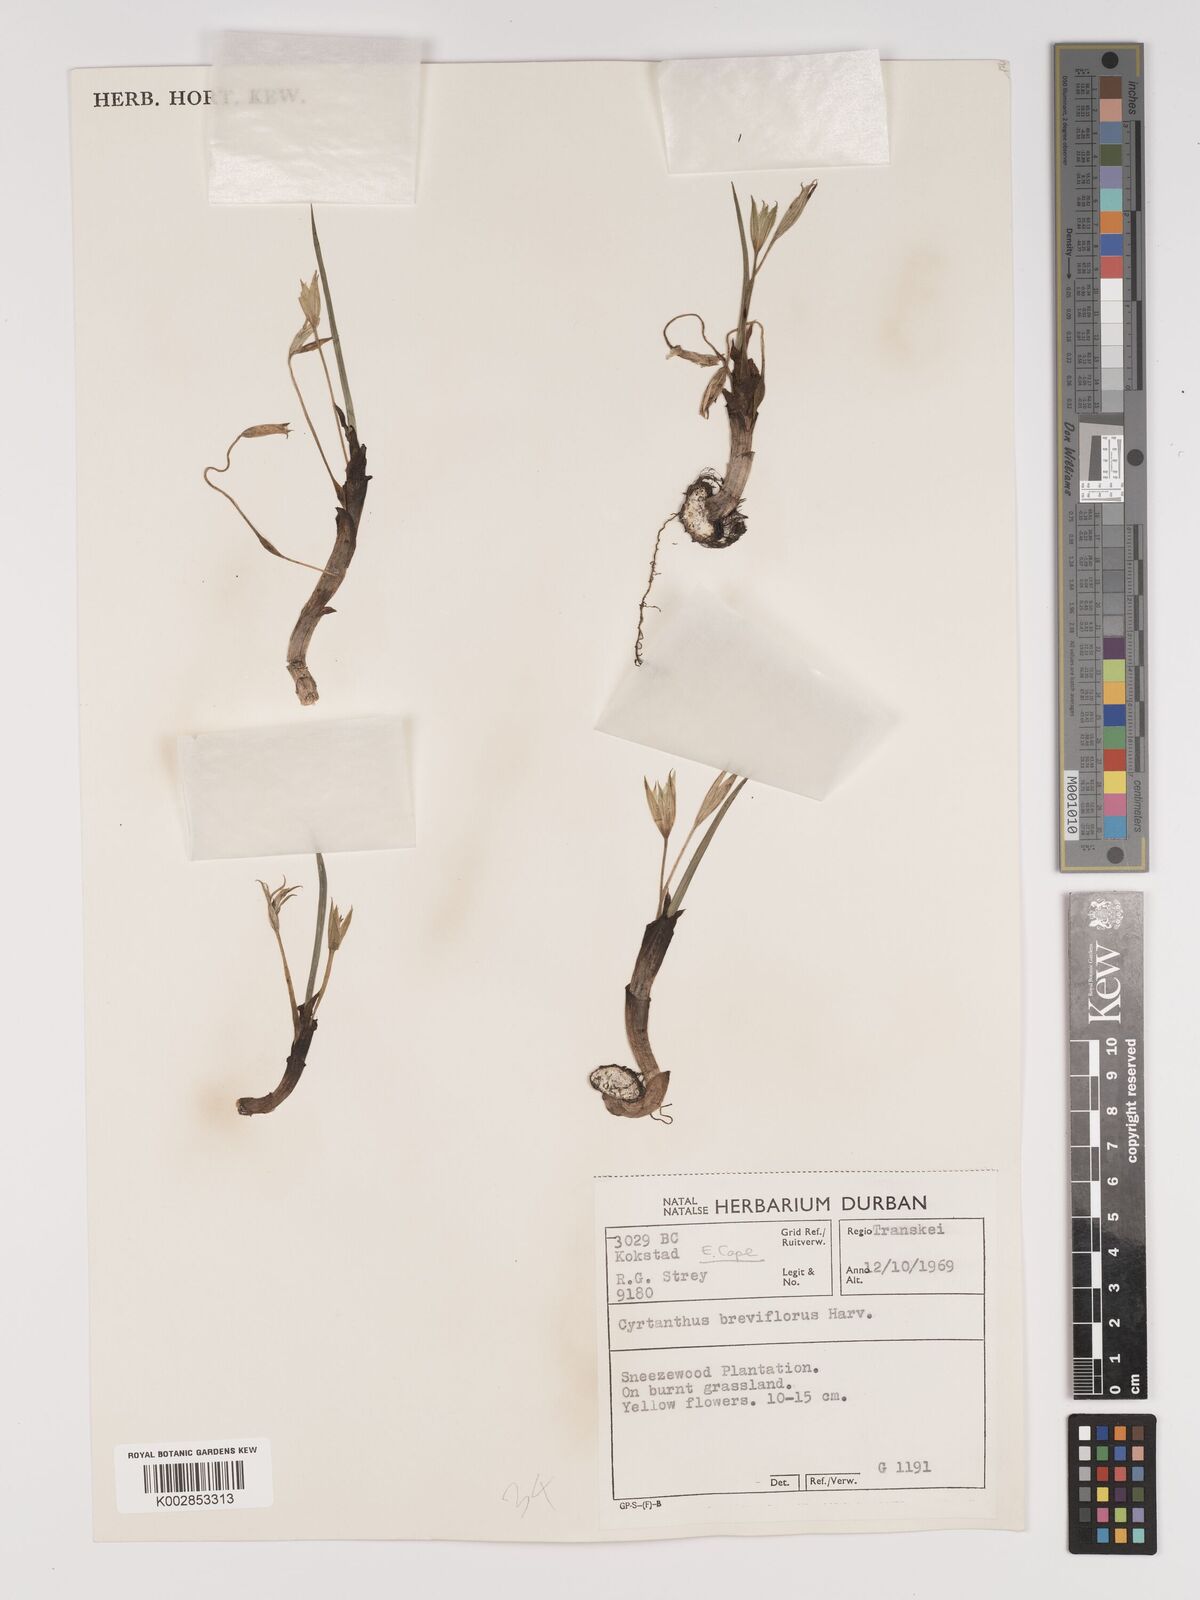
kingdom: Plantae
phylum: Tracheophyta
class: Liliopsida
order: Asparagales
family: Amaryllidaceae
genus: Cyrtanthus
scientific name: Cyrtanthus breviflorus
